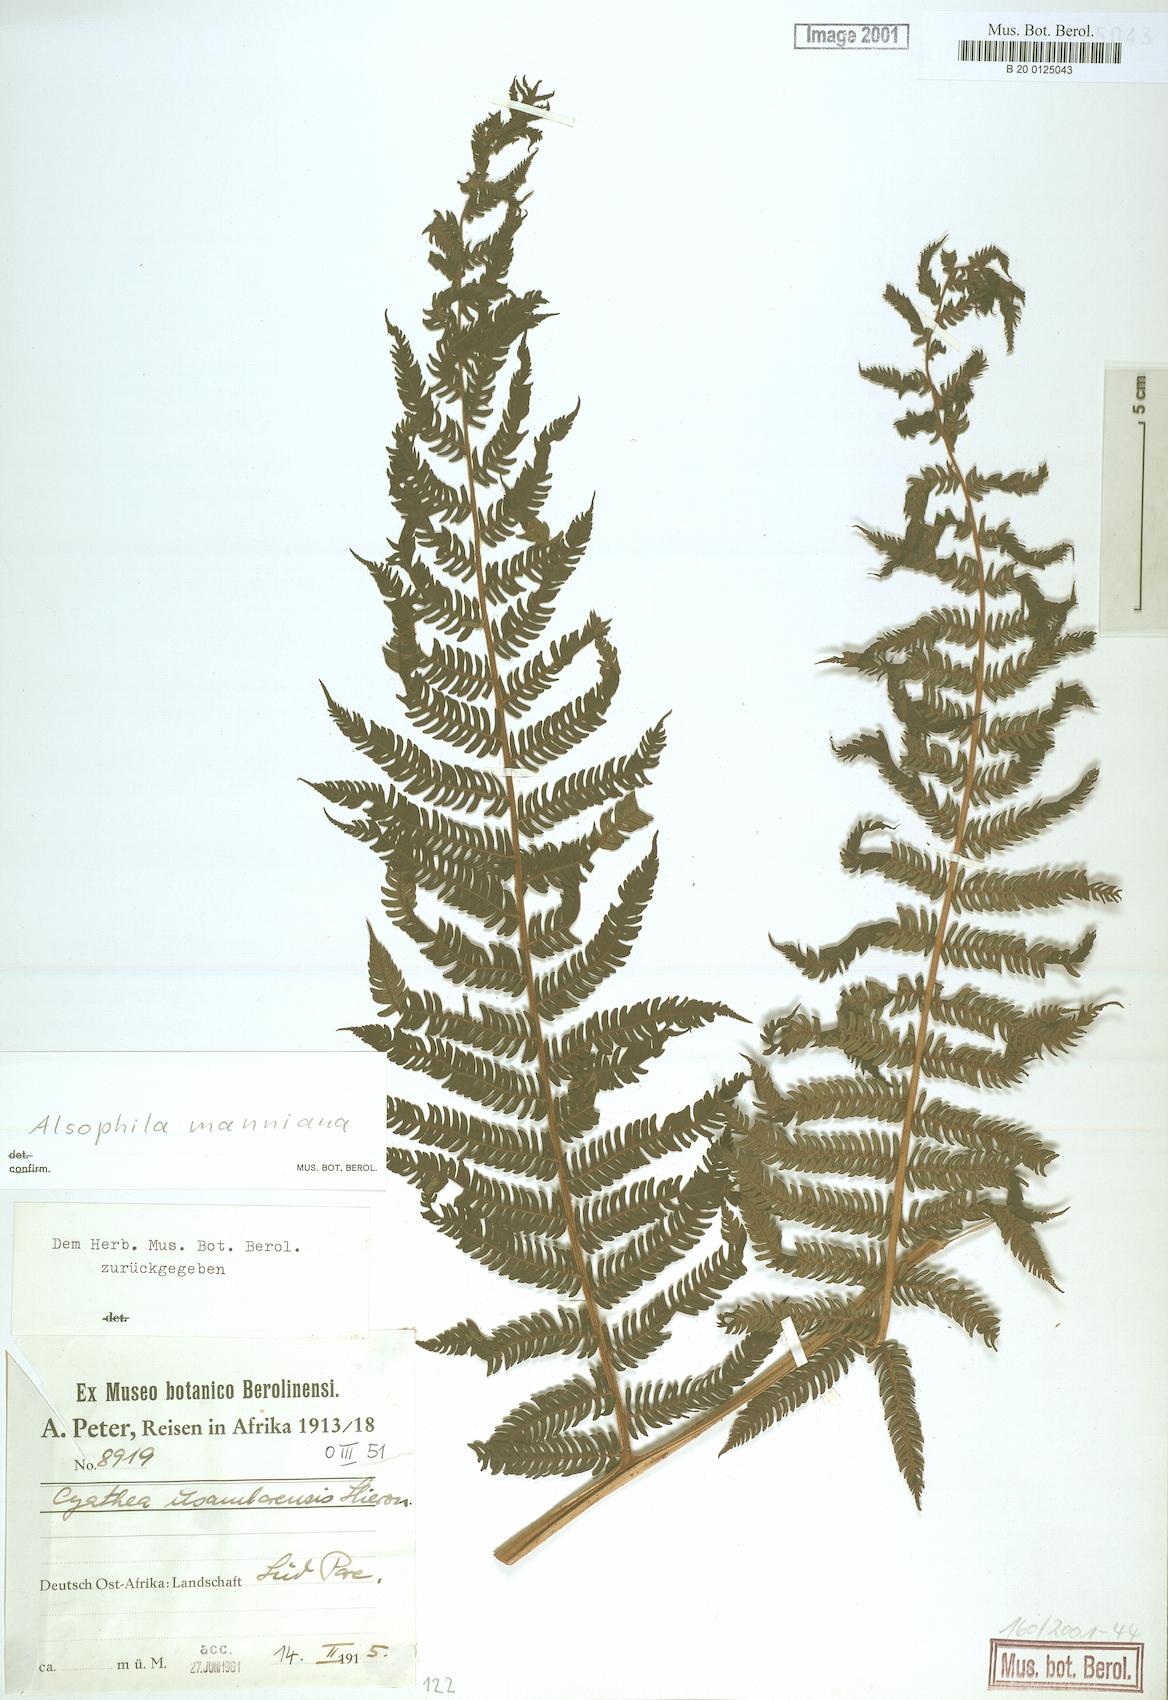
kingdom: Plantae
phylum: Tracheophyta
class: Polypodiopsida
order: Cyatheales
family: Cyatheaceae
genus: Alsophila
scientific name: Alsophila manniana
